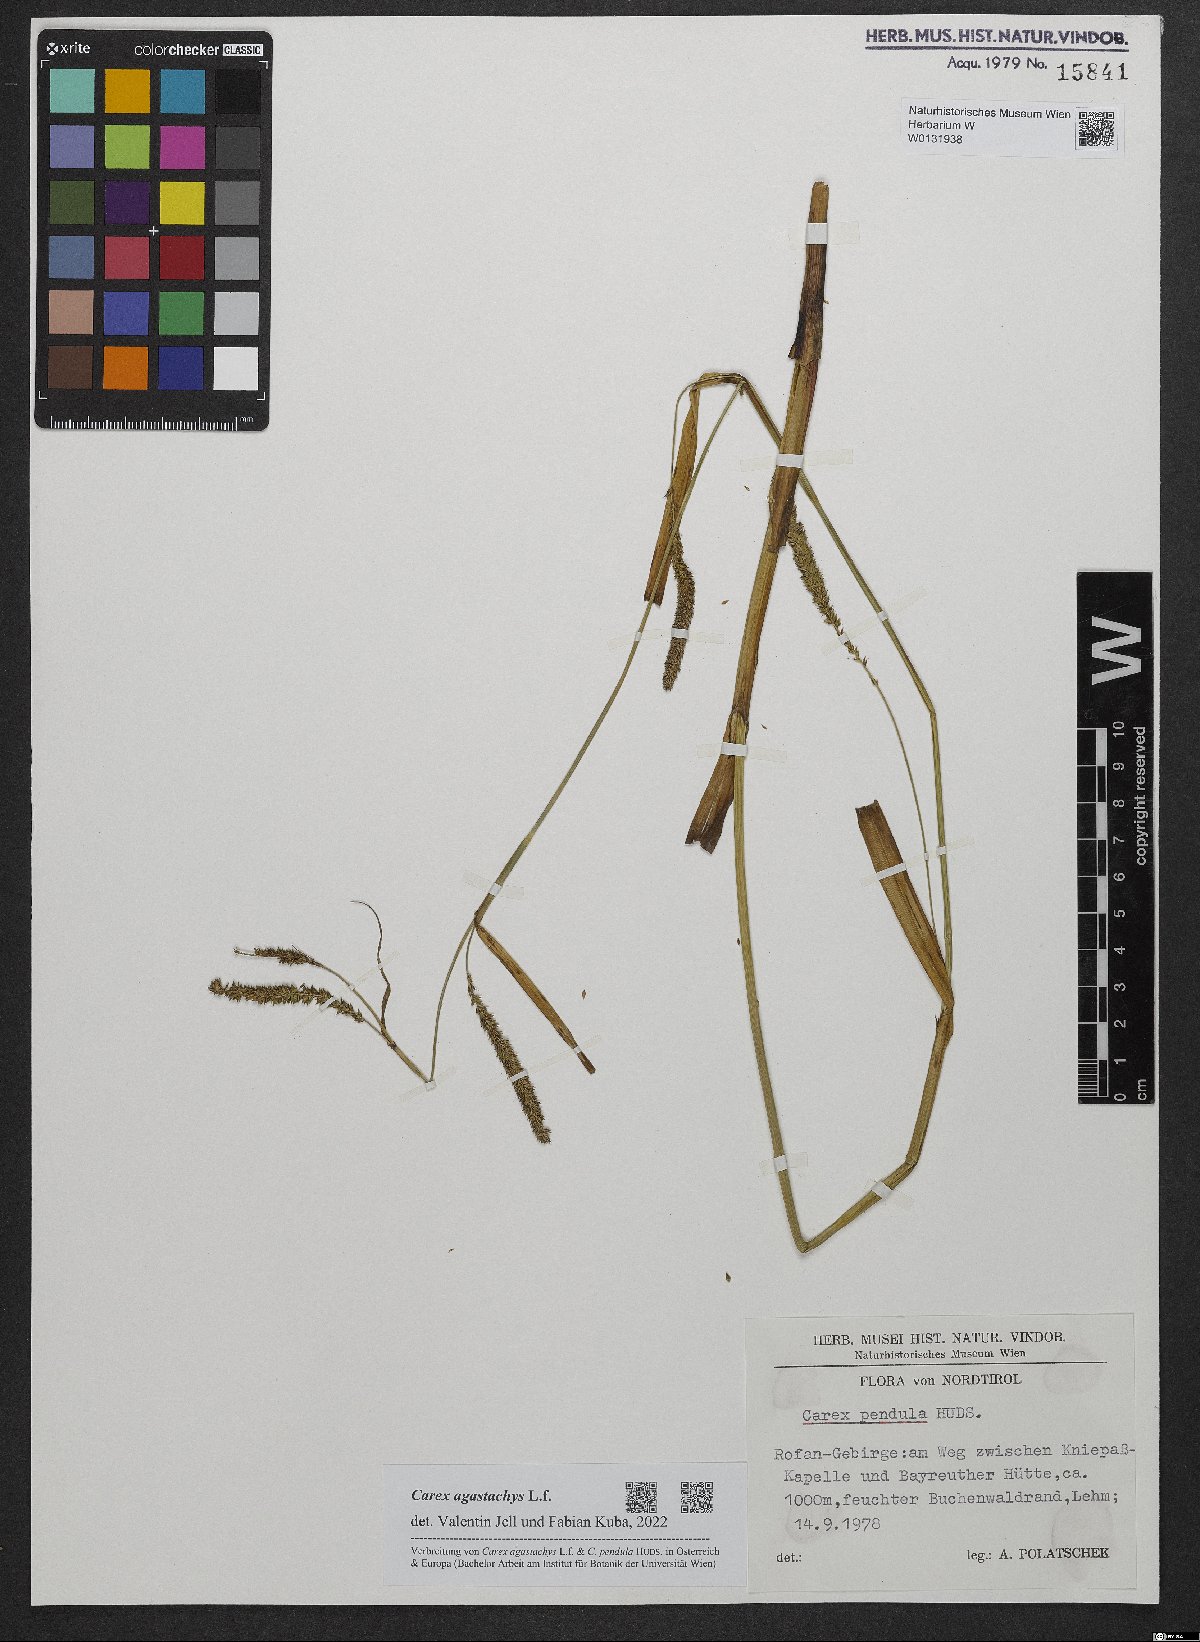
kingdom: Plantae
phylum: Tracheophyta
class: Liliopsida
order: Poales
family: Cyperaceae
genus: Carex
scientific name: Carex agastachys
